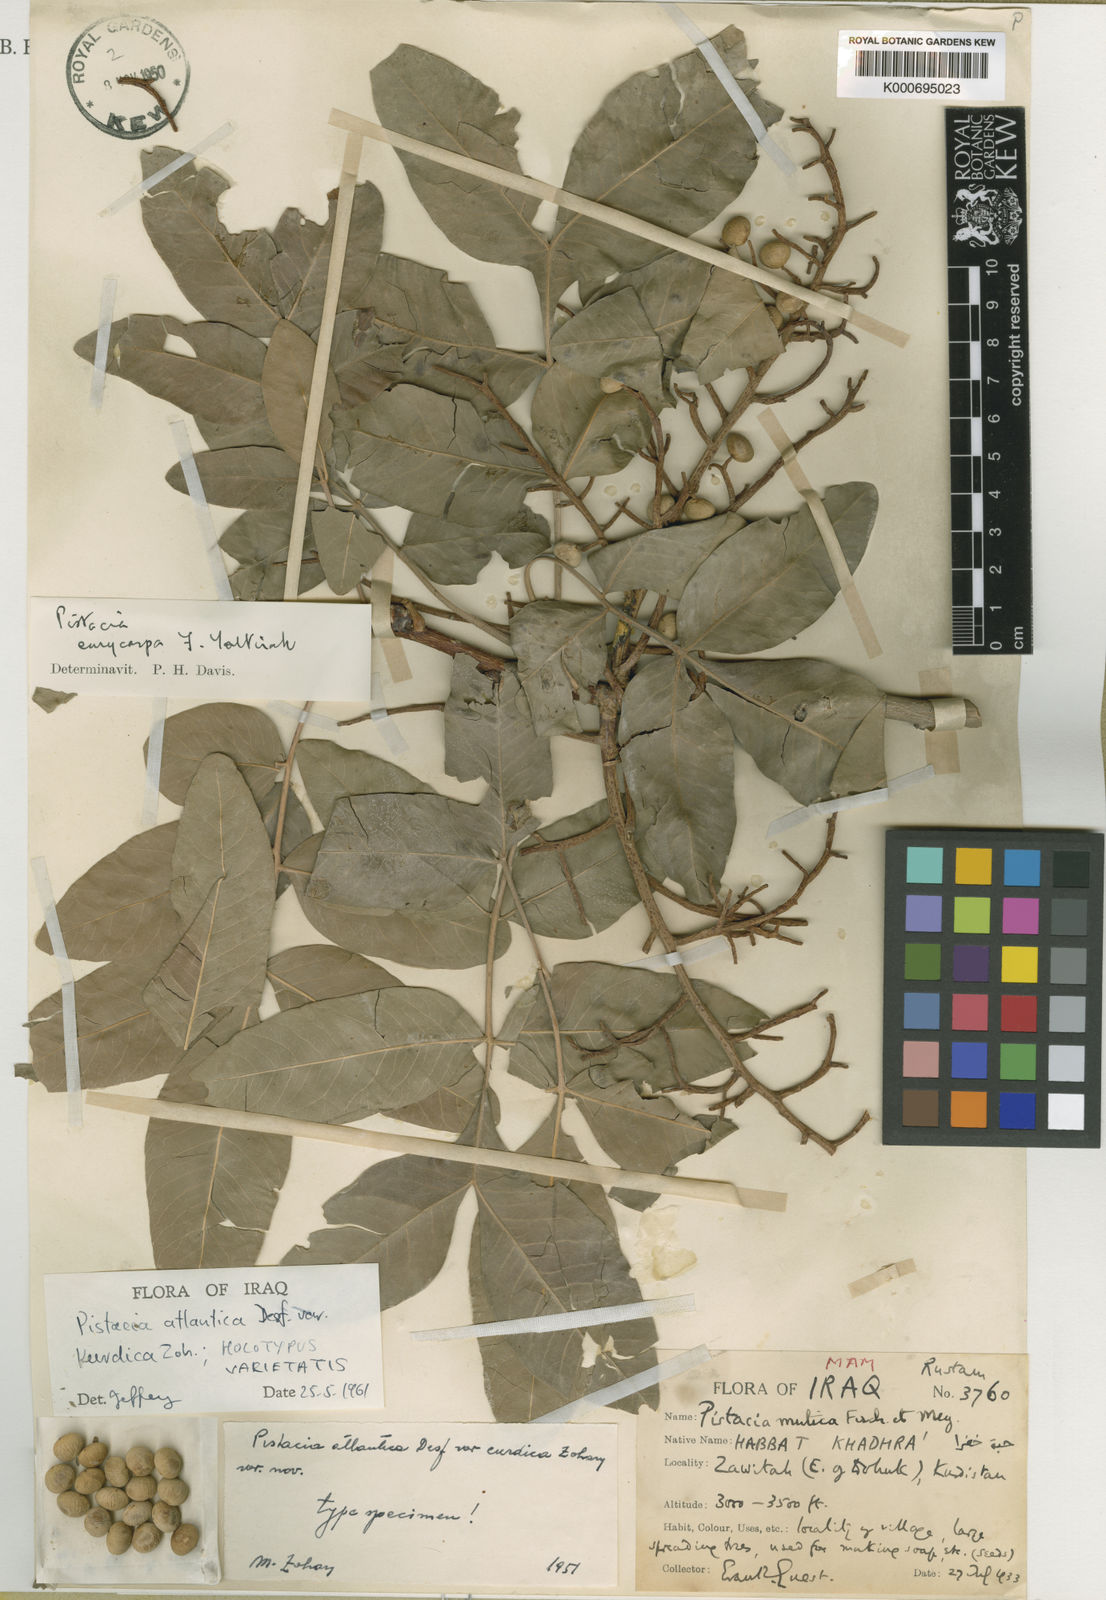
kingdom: Plantae
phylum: Tracheophyta
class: Magnoliopsida
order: Sapindales
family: Anacardiaceae
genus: Pistacia
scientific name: Pistacia
